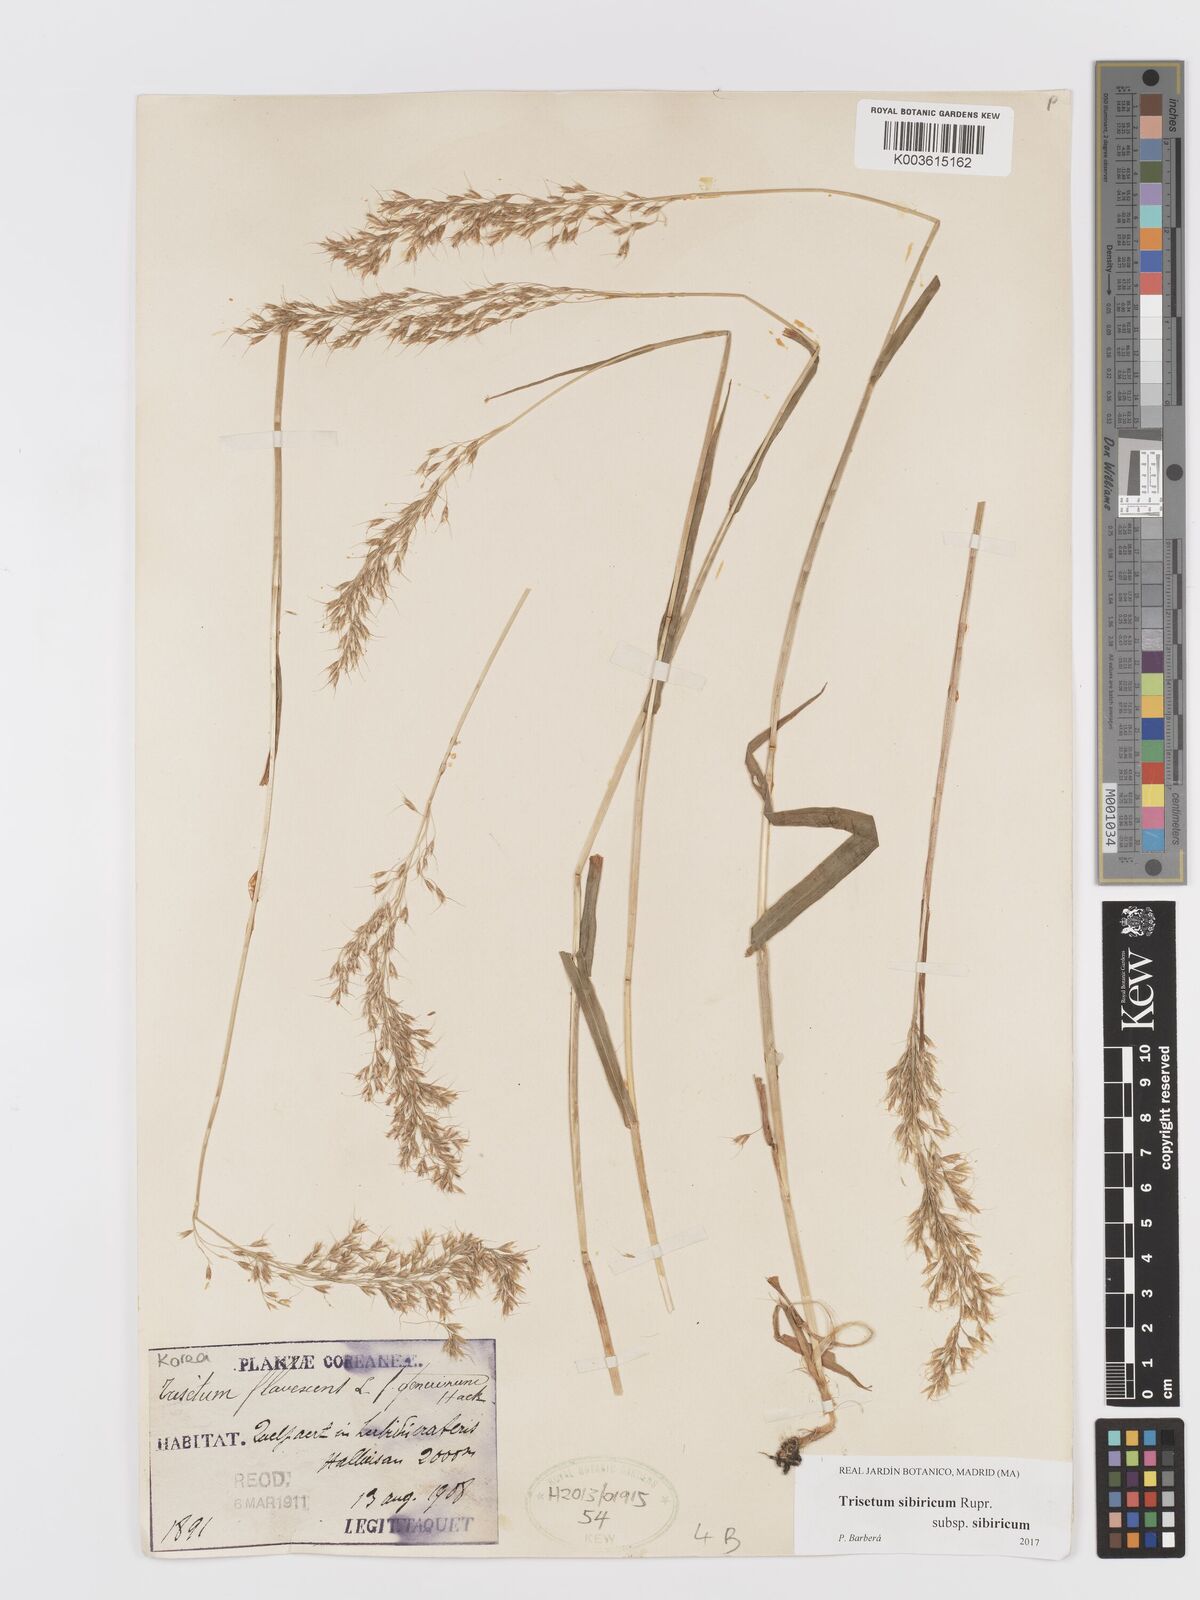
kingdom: Plantae
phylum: Tracheophyta
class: Liliopsida
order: Poales
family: Poaceae
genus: Sibirotrisetum
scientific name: Sibirotrisetum sibiricum
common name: Siberian false oat
